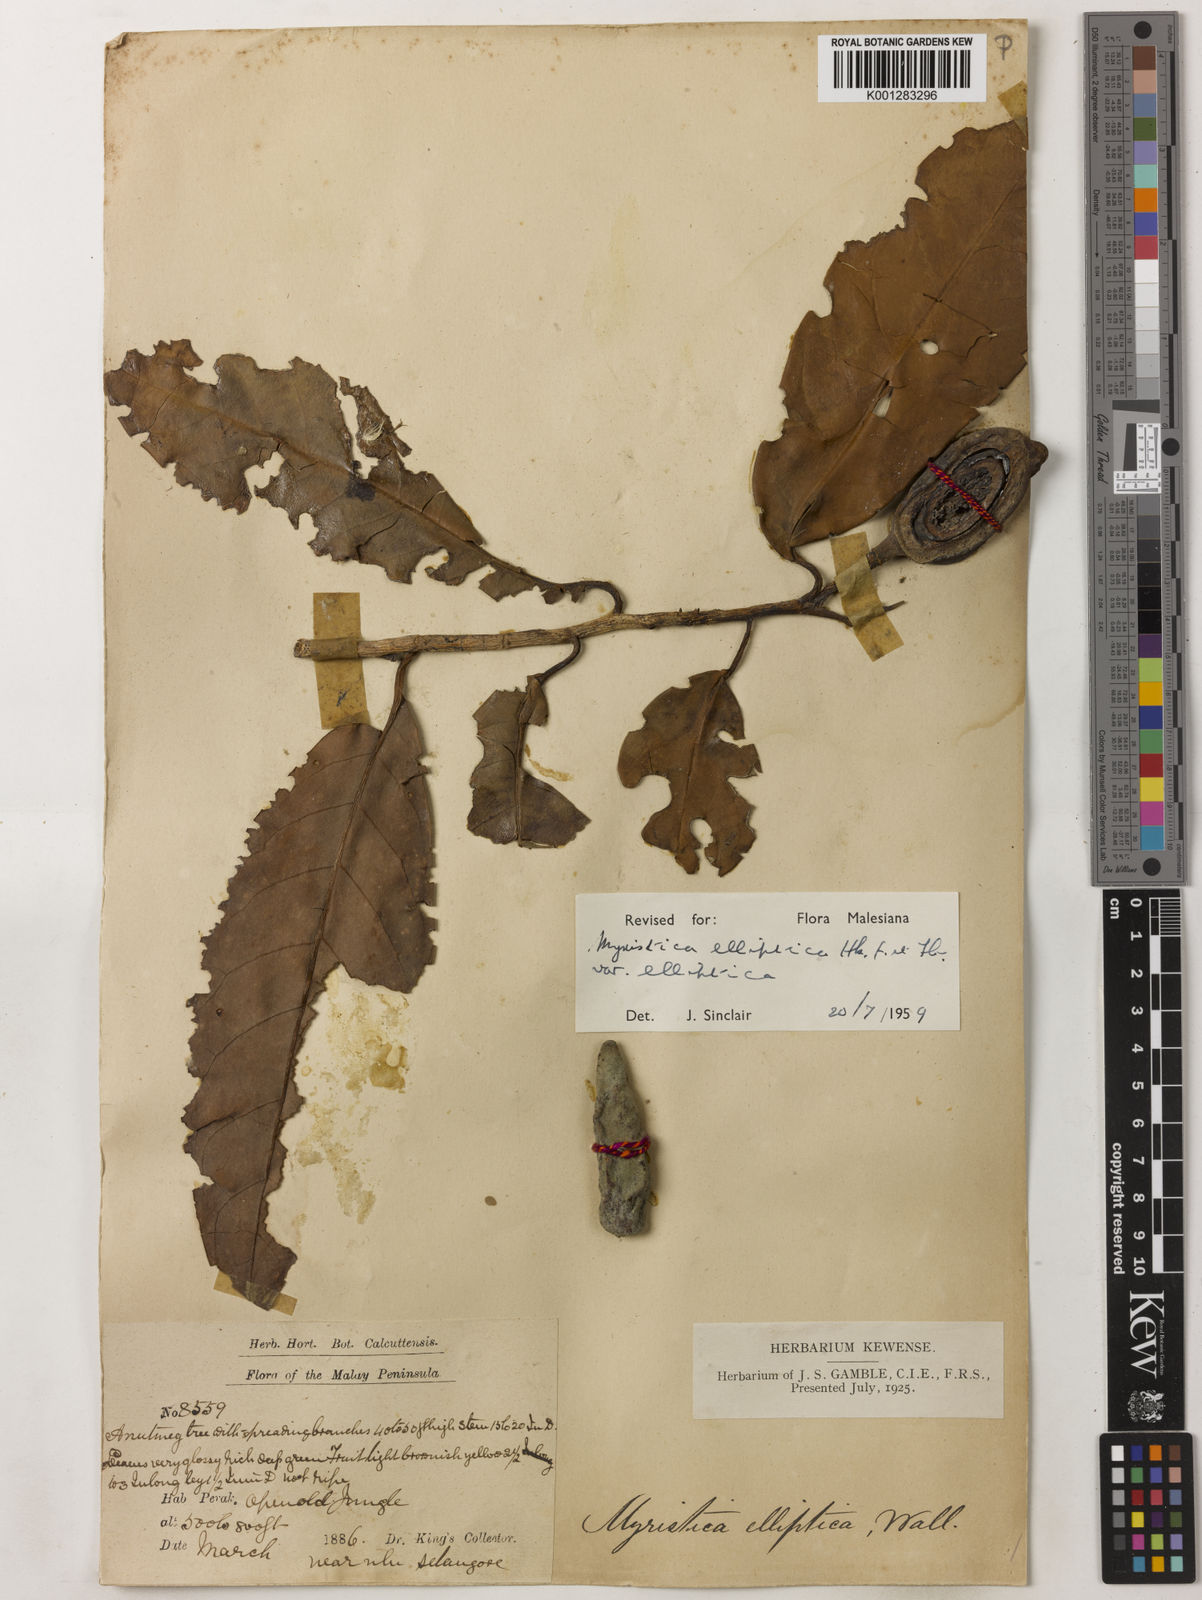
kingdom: Plantae
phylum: Tracheophyta
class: Magnoliopsida
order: Magnoliales
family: Myristicaceae
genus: Myristica
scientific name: Myristica elliptica
